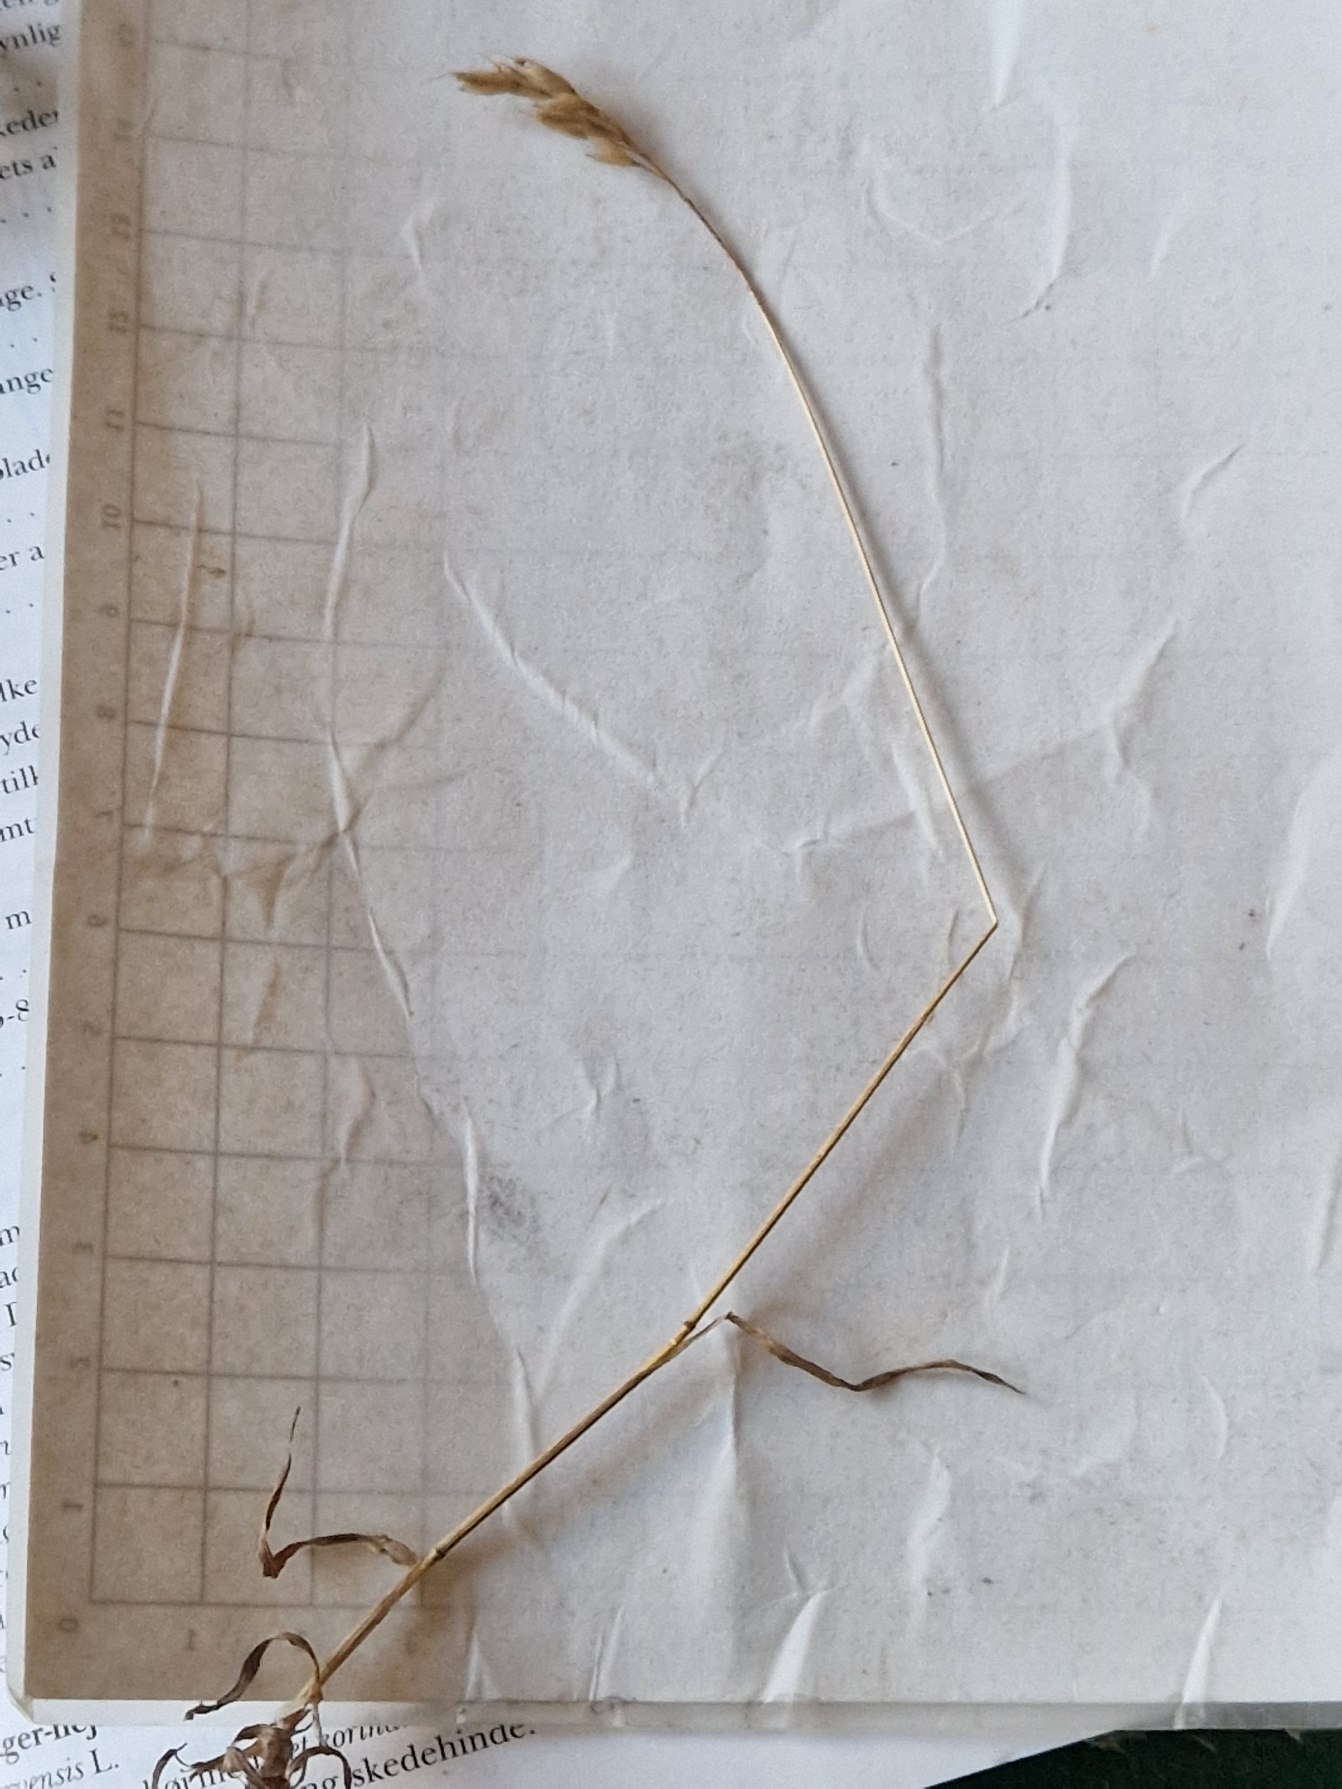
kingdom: Plantae
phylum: Tracheophyta
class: Liliopsida
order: Poales
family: Poaceae
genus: Bromus
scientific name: Bromus hordeaceus
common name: Blød hejre
